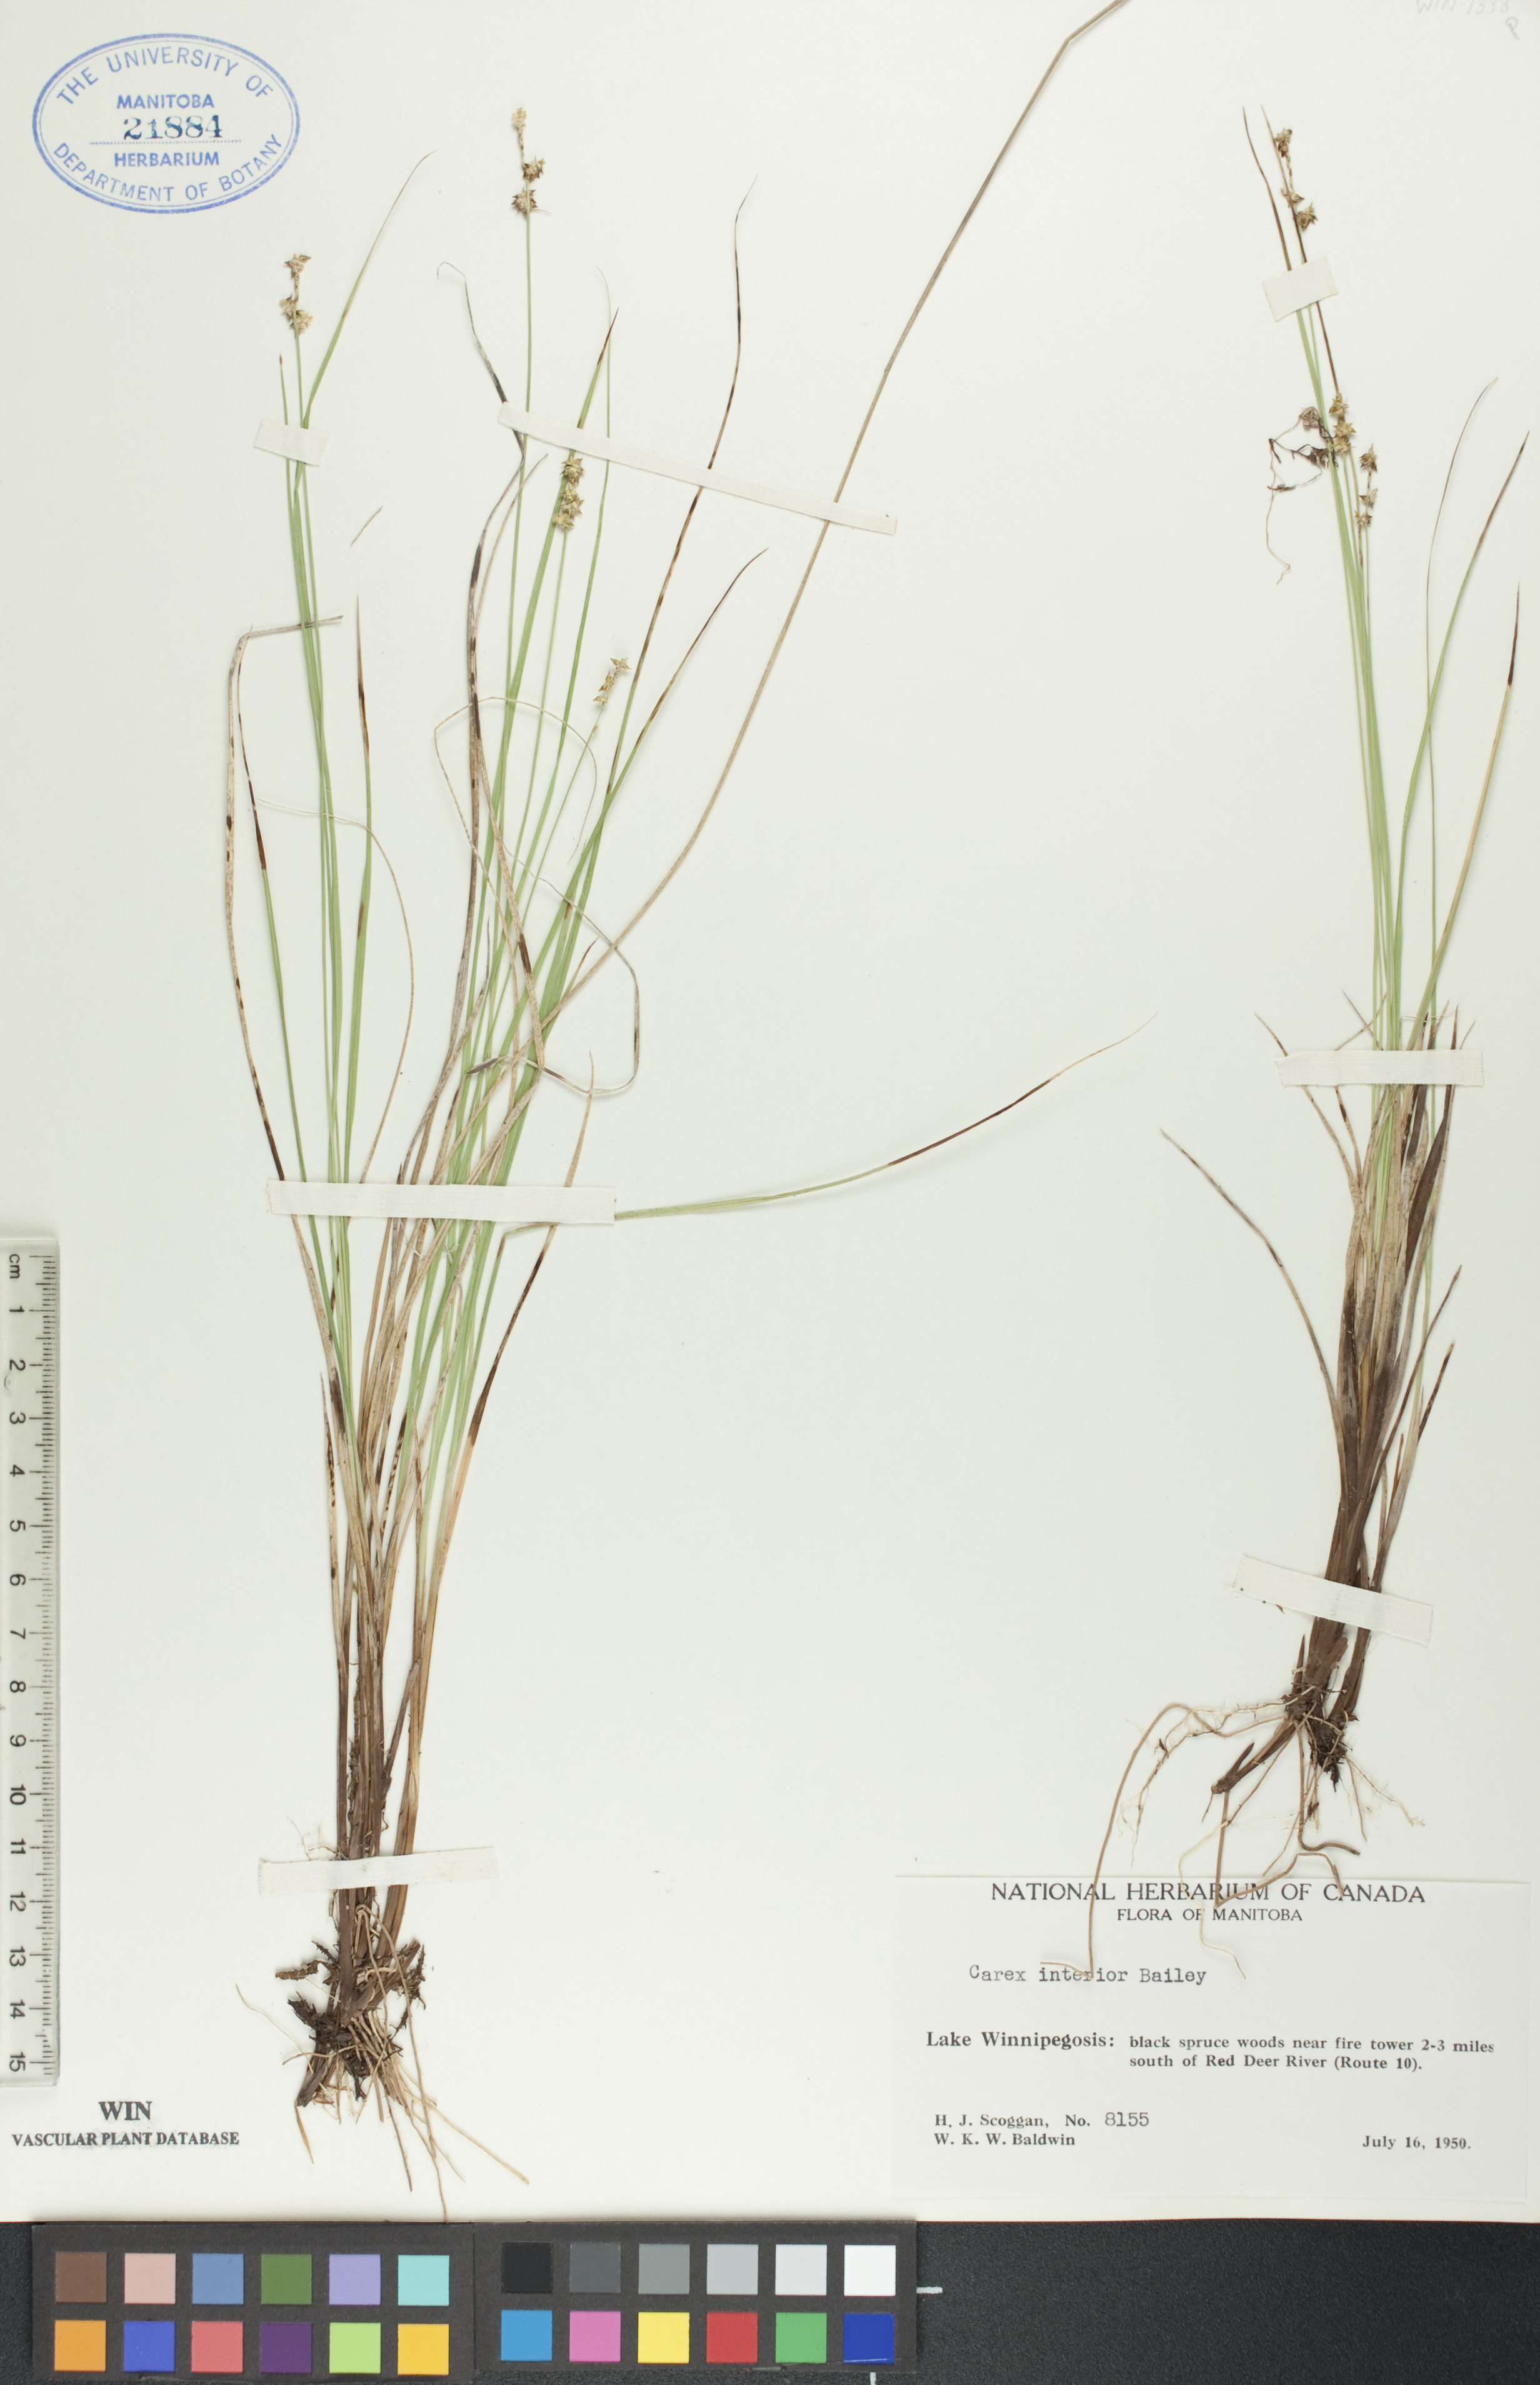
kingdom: Plantae
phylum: Tracheophyta
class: Liliopsida
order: Poales
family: Cyperaceae
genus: Carex
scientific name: Carex interior
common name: Inland sedge
